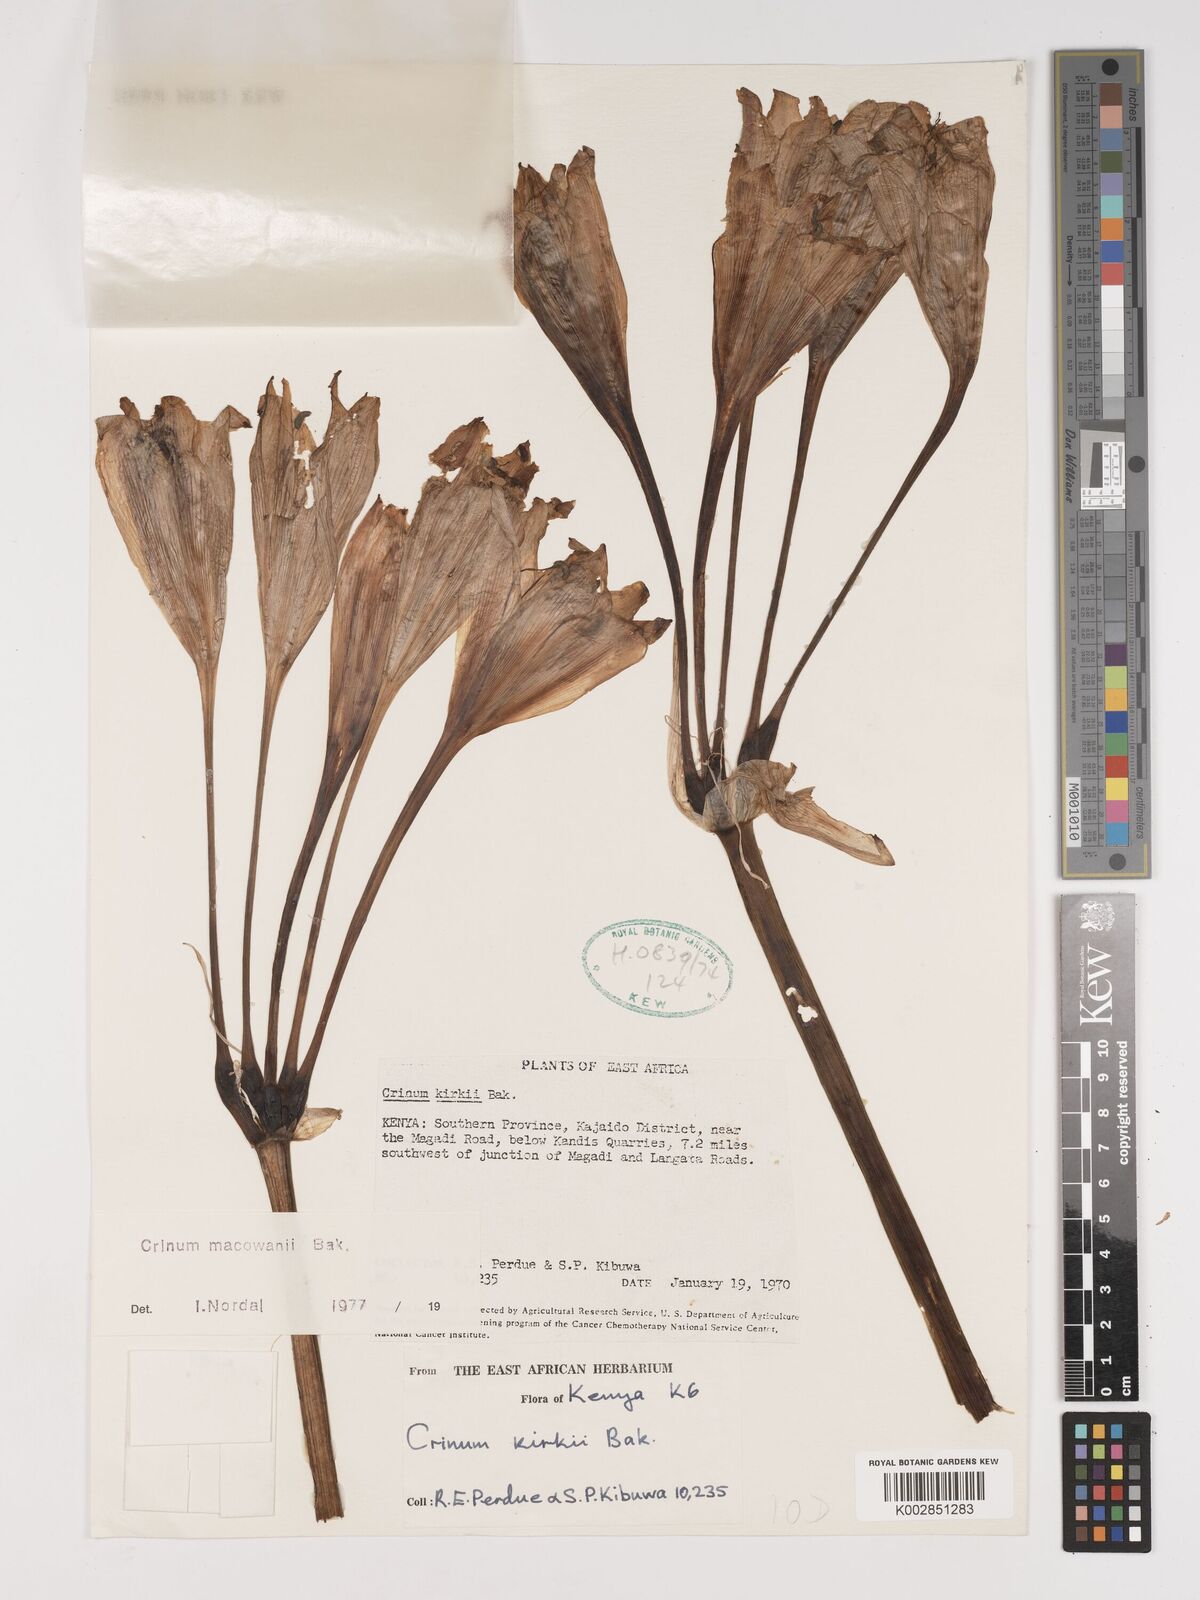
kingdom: Plantae
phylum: Tracheophyta
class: Liliopsida
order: Asparagales
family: Amaryllidaceae
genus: Crinum
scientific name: Crinum macowanii
